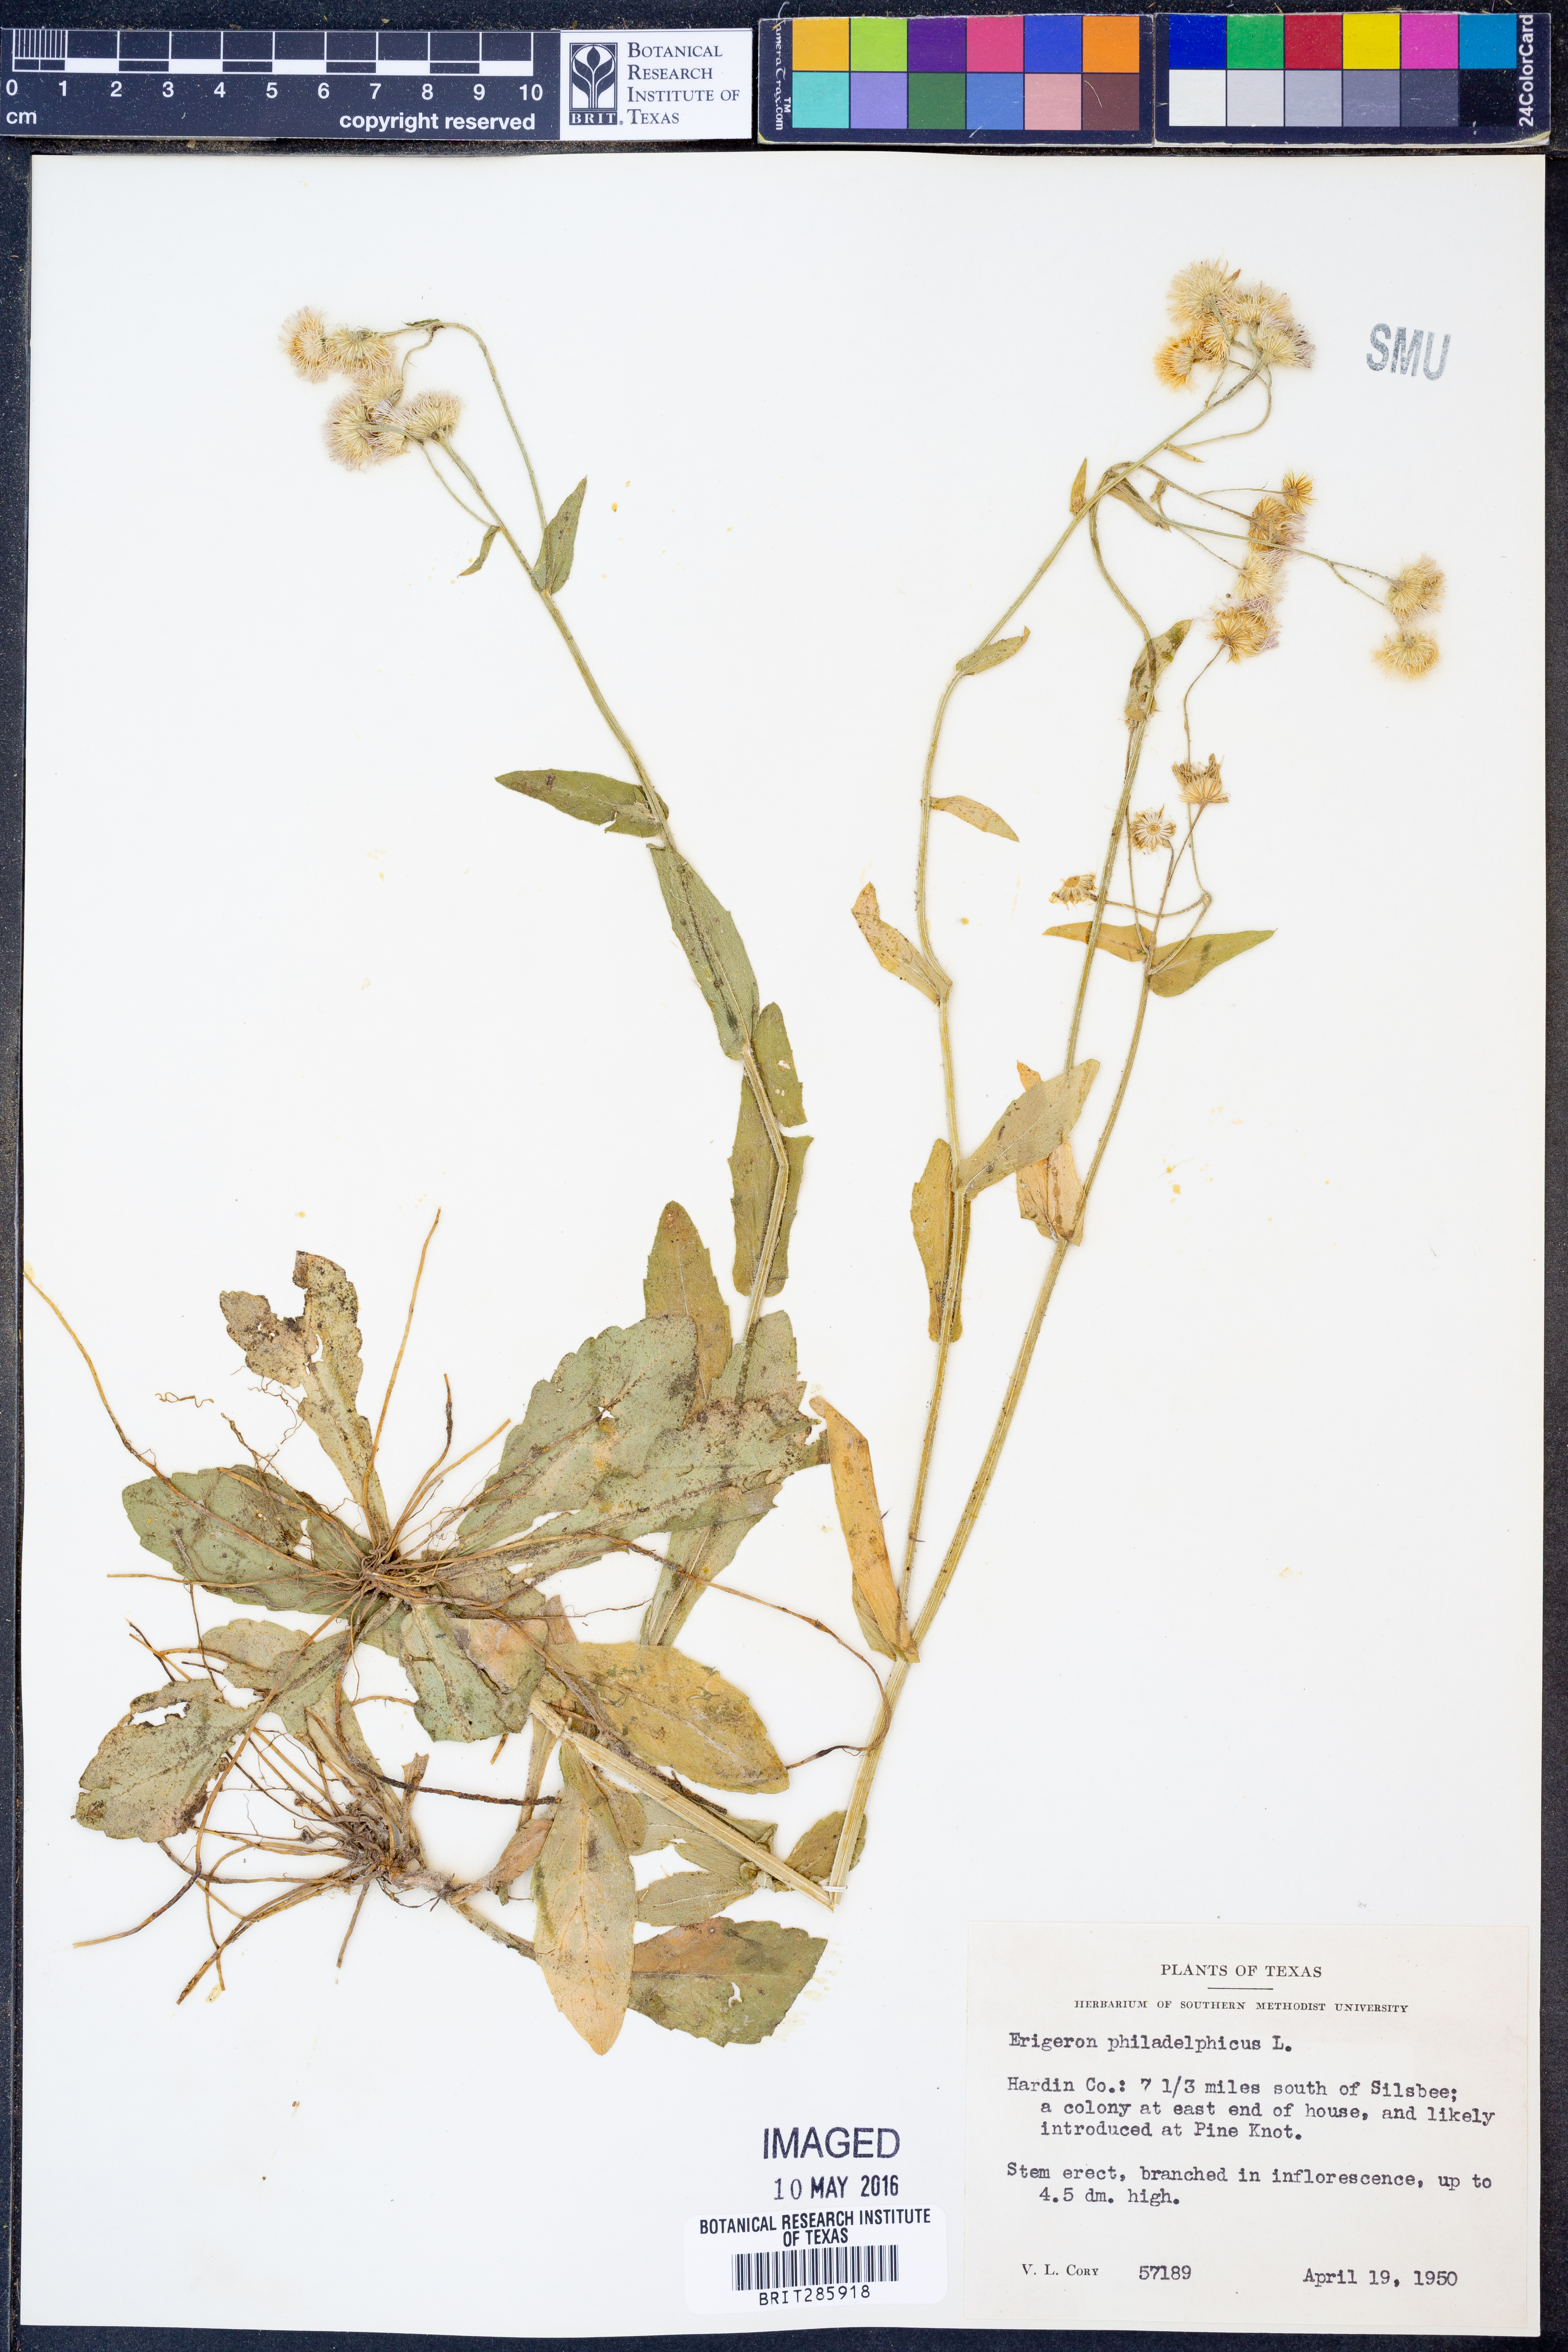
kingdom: Plantae
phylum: Tracheophyta
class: Magnoliopsida
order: Asterales
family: Asteraceae
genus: Erigeron
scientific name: Erigeron philadelphicus
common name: Robin's-plantain
